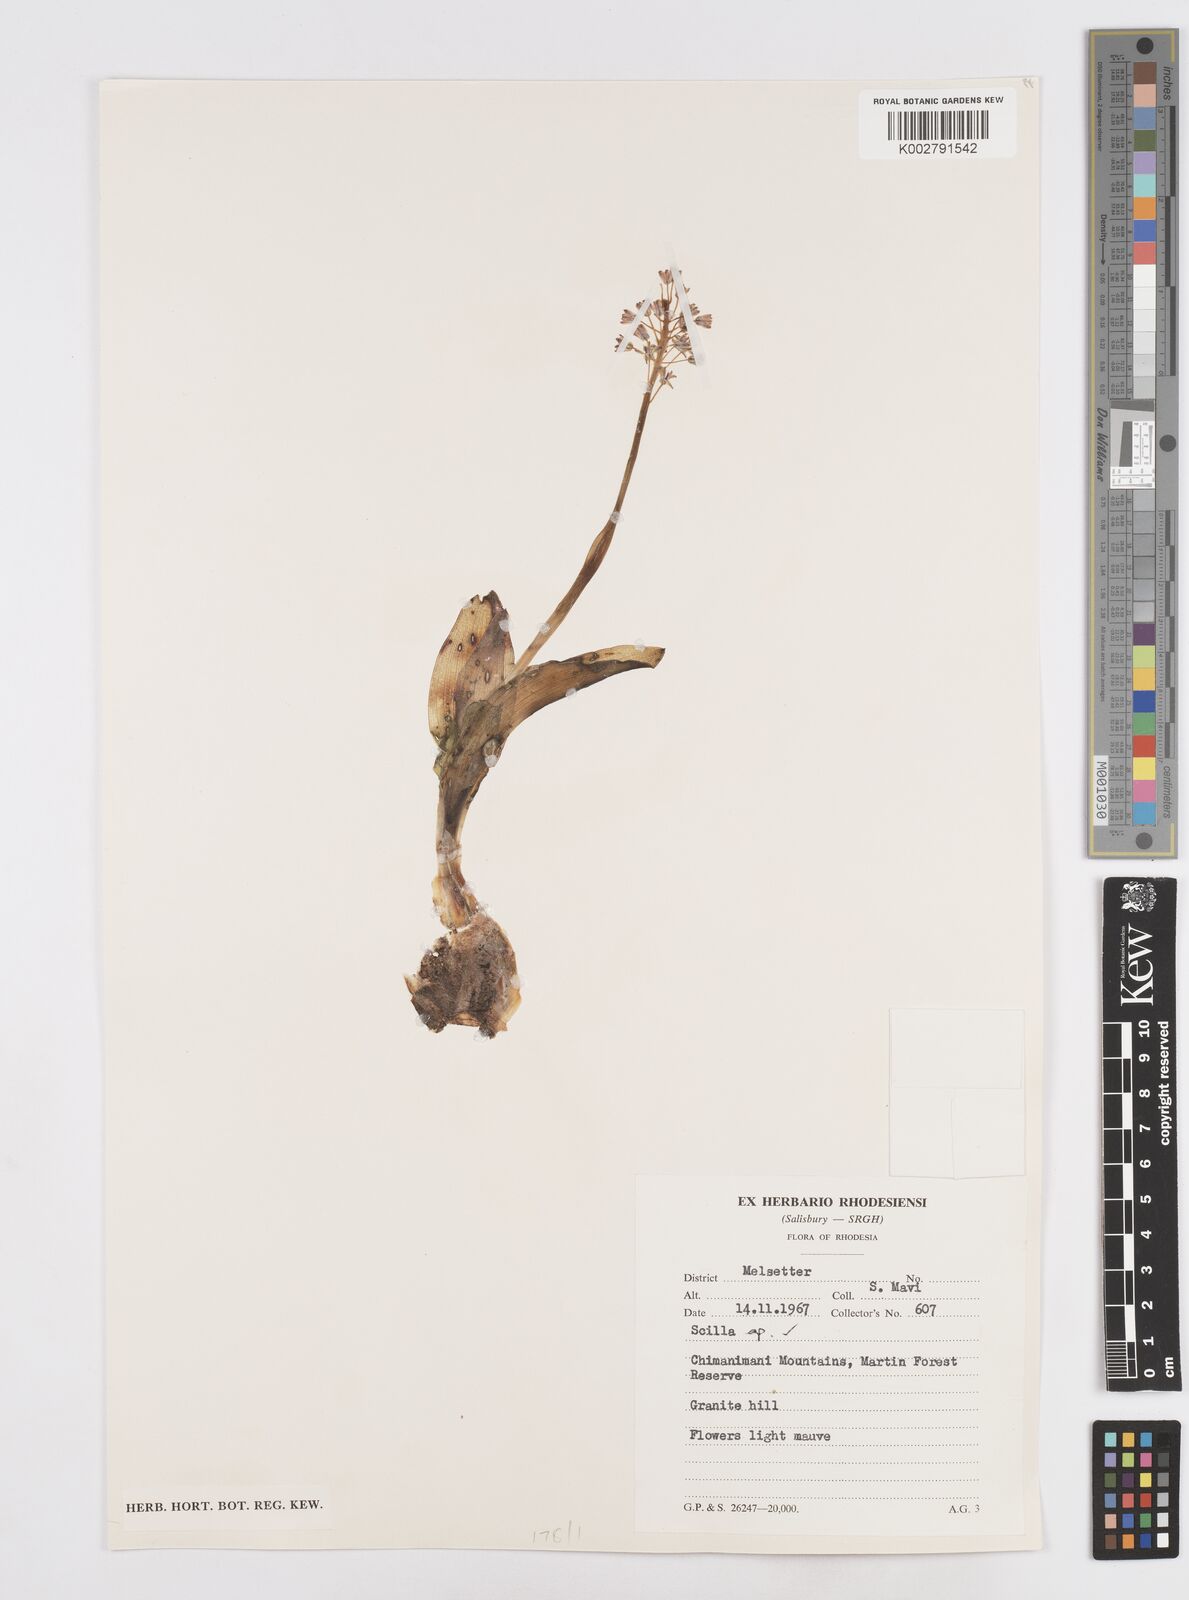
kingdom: Plantae
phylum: Tracheophyta
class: Liliopsida
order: Asparagales
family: Asparagaceae
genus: Scilla
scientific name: Scilla
